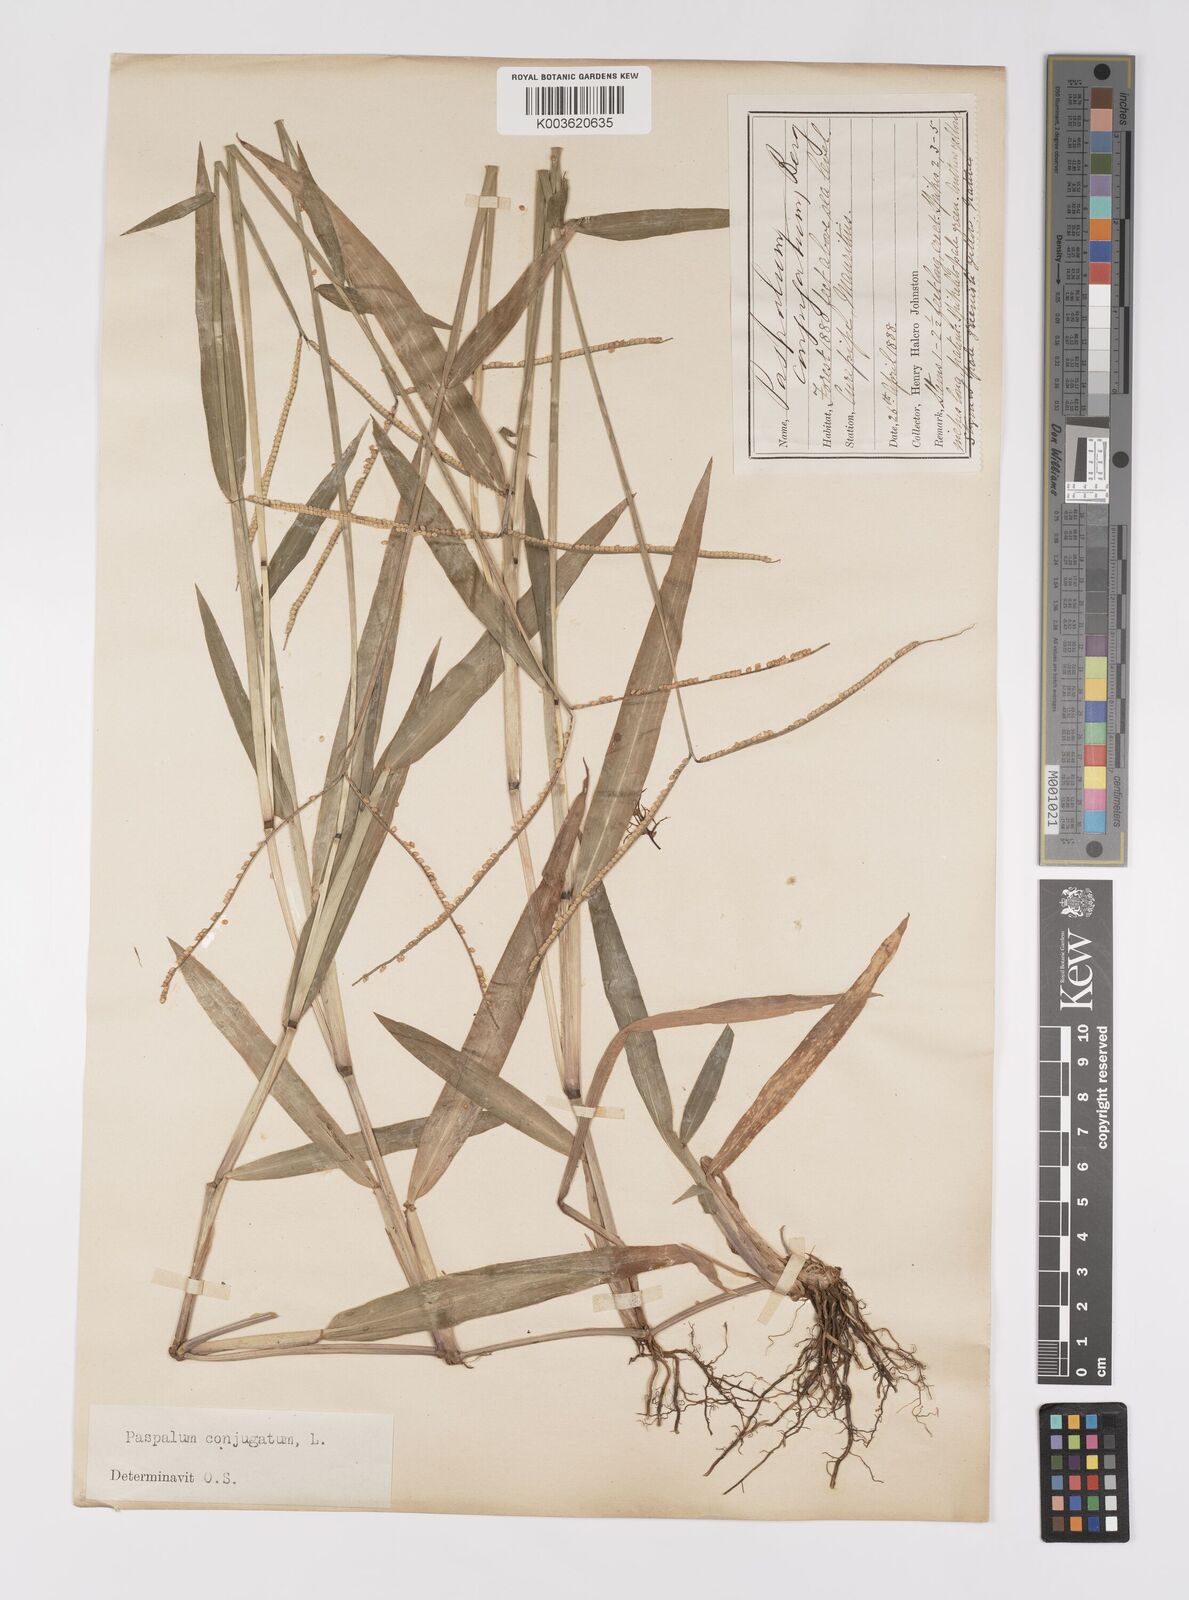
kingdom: Plantae
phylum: Tracheophyta
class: Liliopsida
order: Poales
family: Poaceae
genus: Paspalum
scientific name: Paspalum conjugatum
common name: Hilograss
